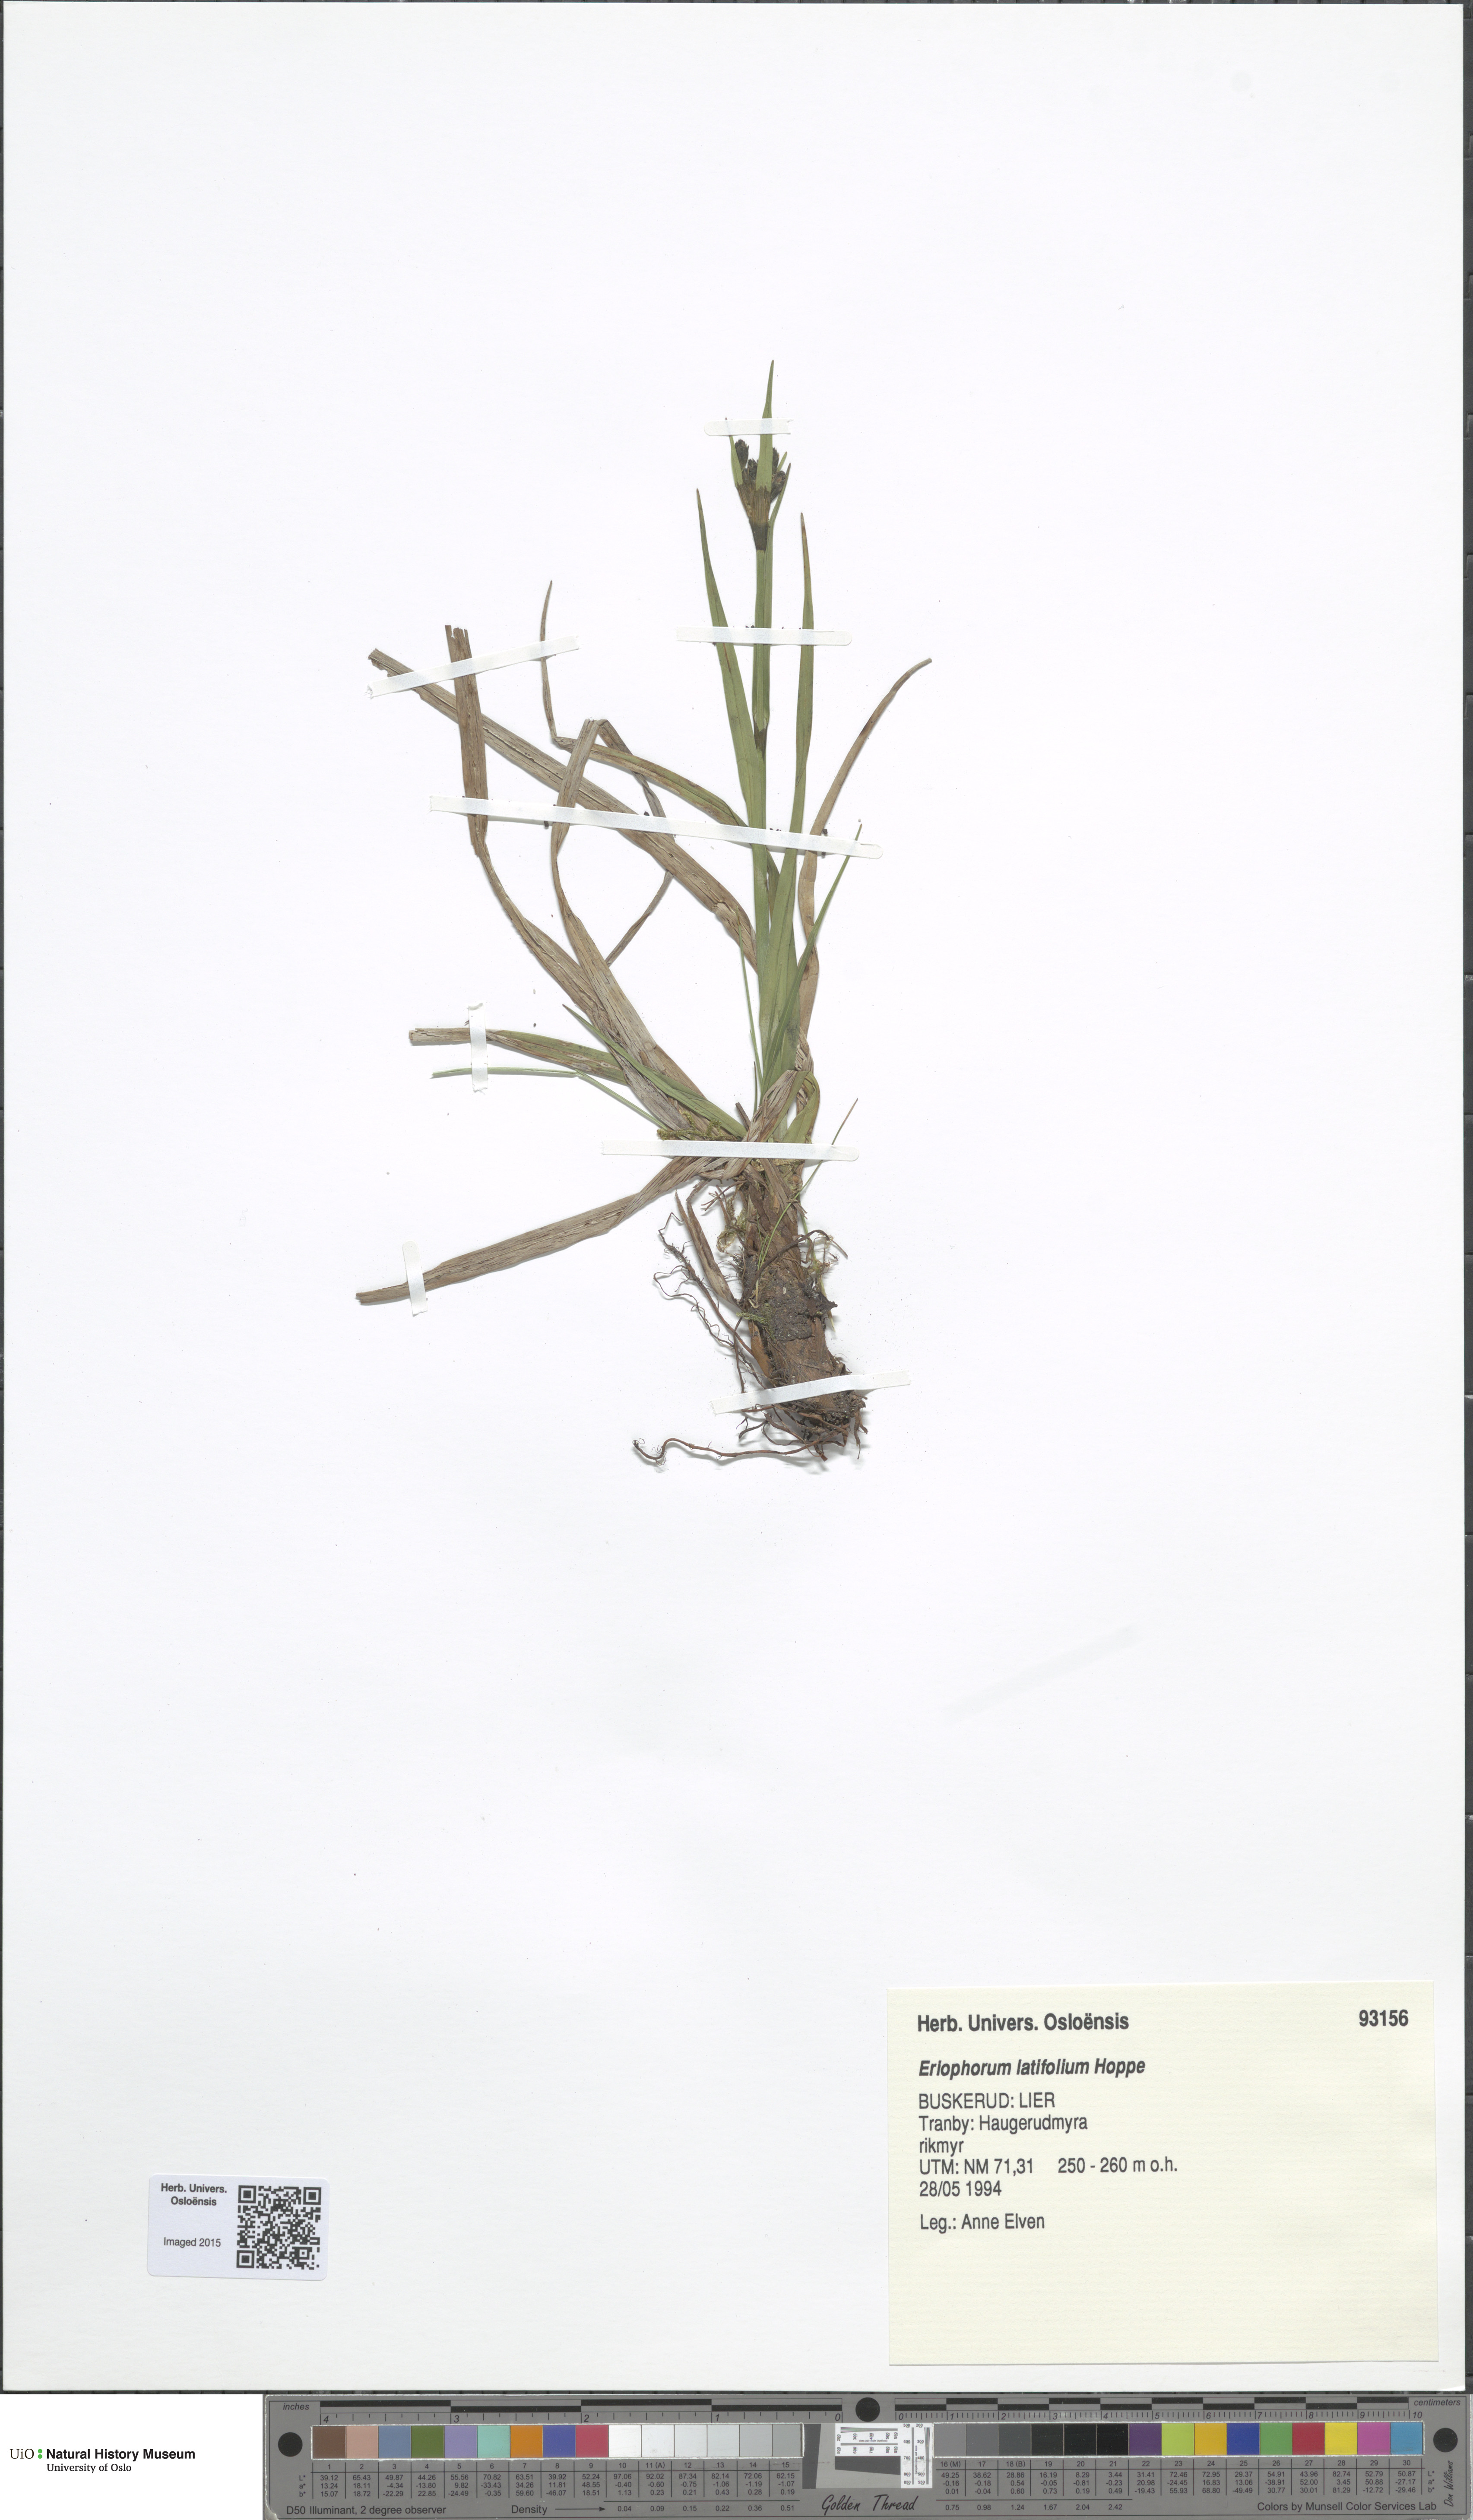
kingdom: Plantae
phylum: Tracheophyta
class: Liliopsida
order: Poales
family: Cyperaceae
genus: Eriophorum
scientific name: Eriophorum latifolium
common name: Broad-leaved cottongrass
